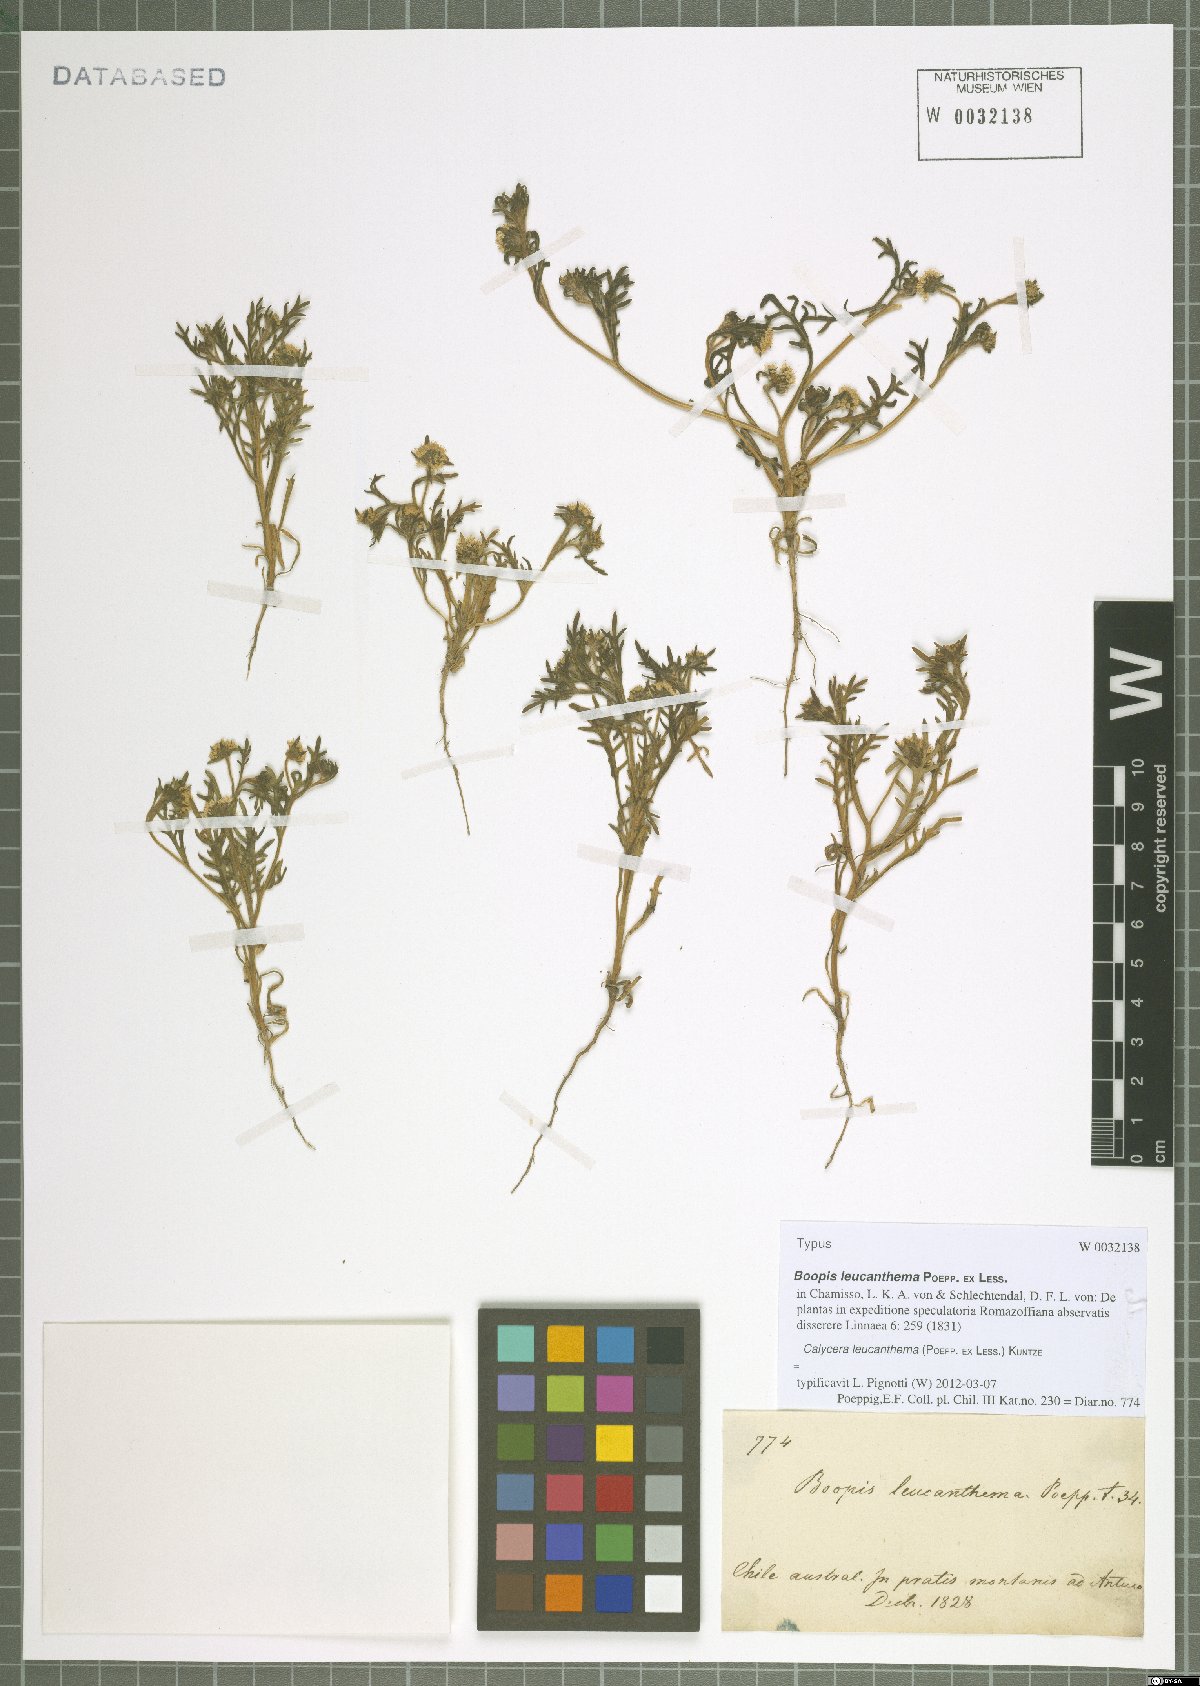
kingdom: Plantae
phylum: Tracheophyta
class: Magnoliopsida
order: Asterales
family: Calyceraceae
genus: Leucocera
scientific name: Leucocera leucanthema
